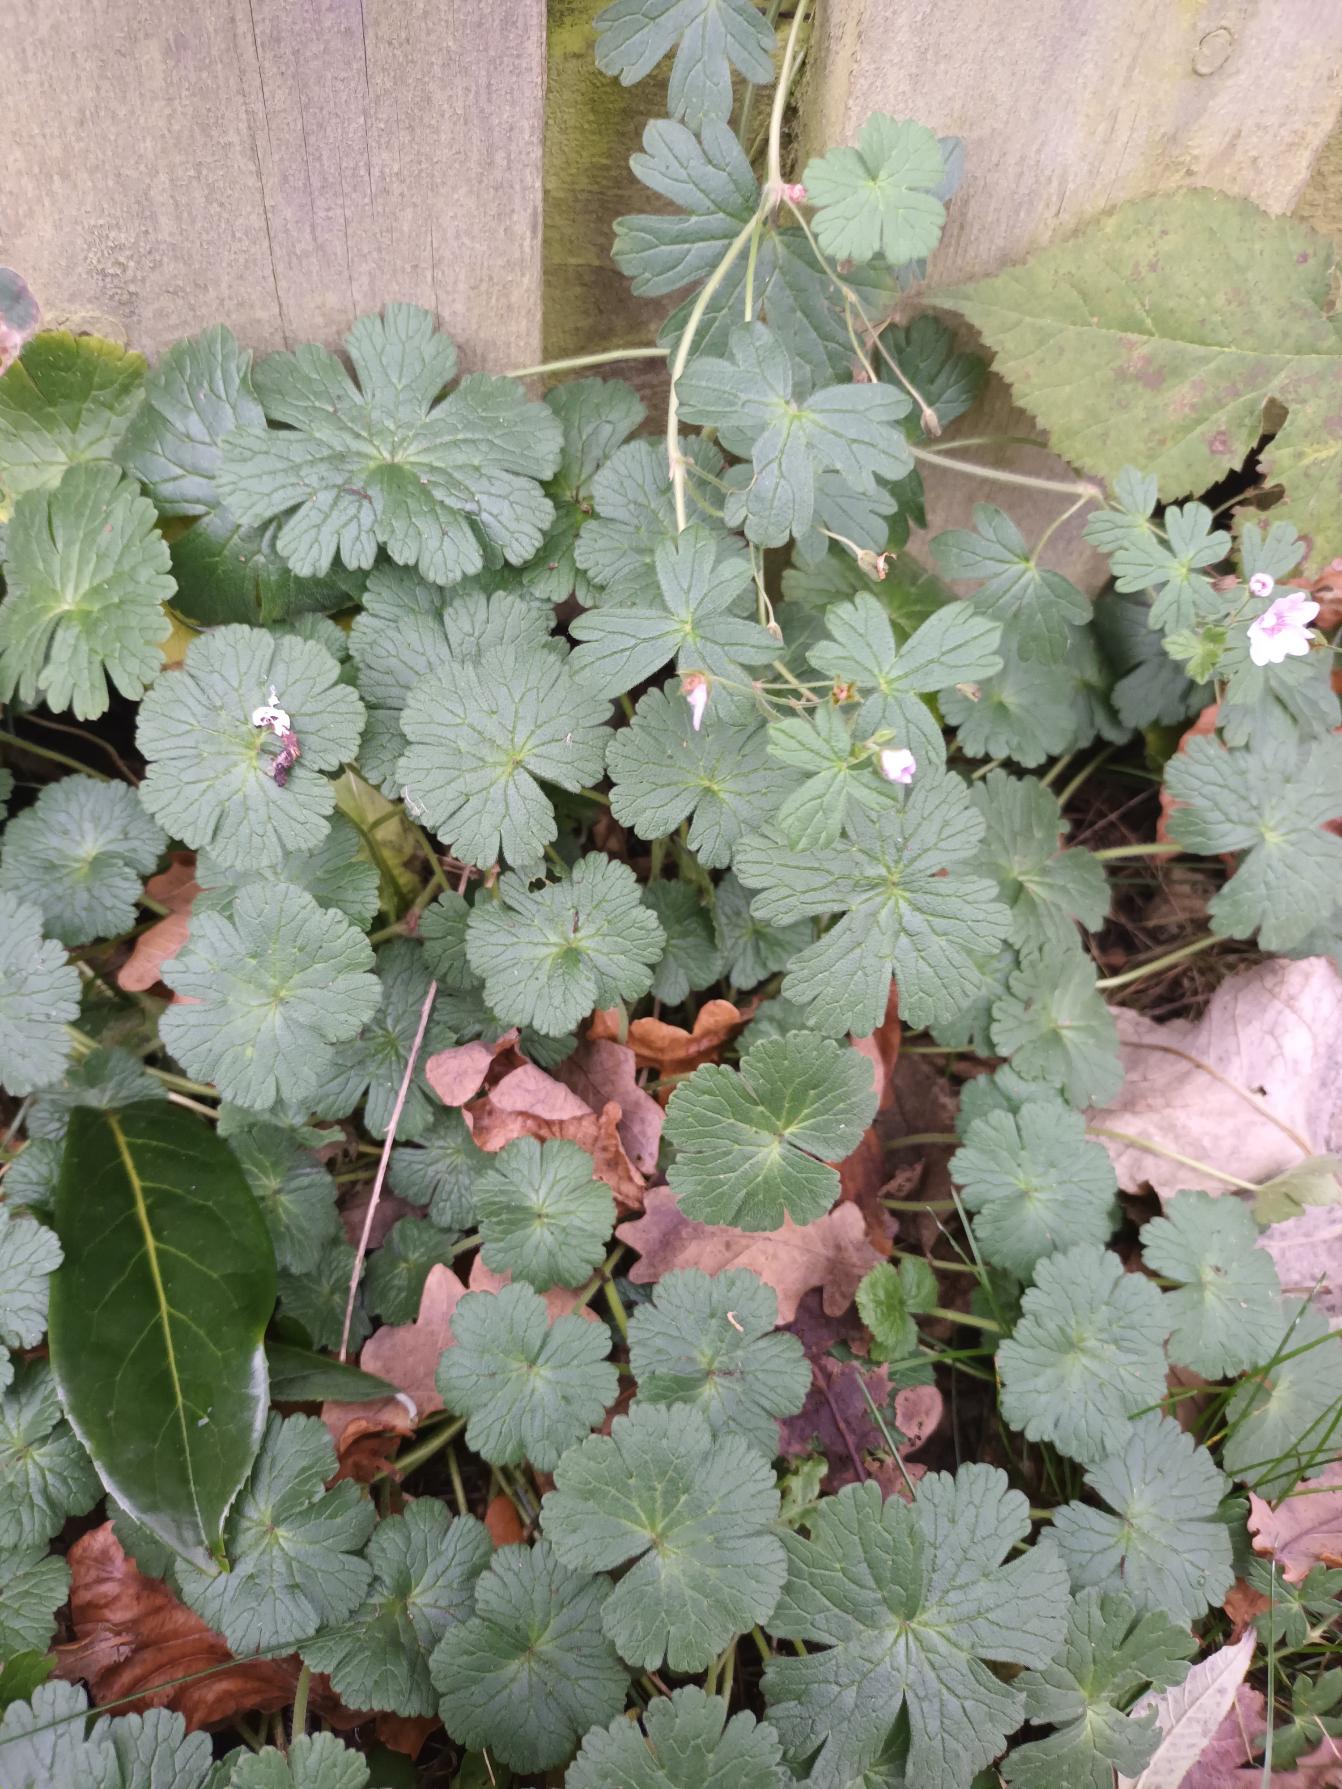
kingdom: Plantae
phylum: Tracheophyta
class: Magnoliopsida
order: Geraniales
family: Geraniaceae
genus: Geranium
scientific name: Geranium pyrenaicum
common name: Pyrenæisk storkenæb
